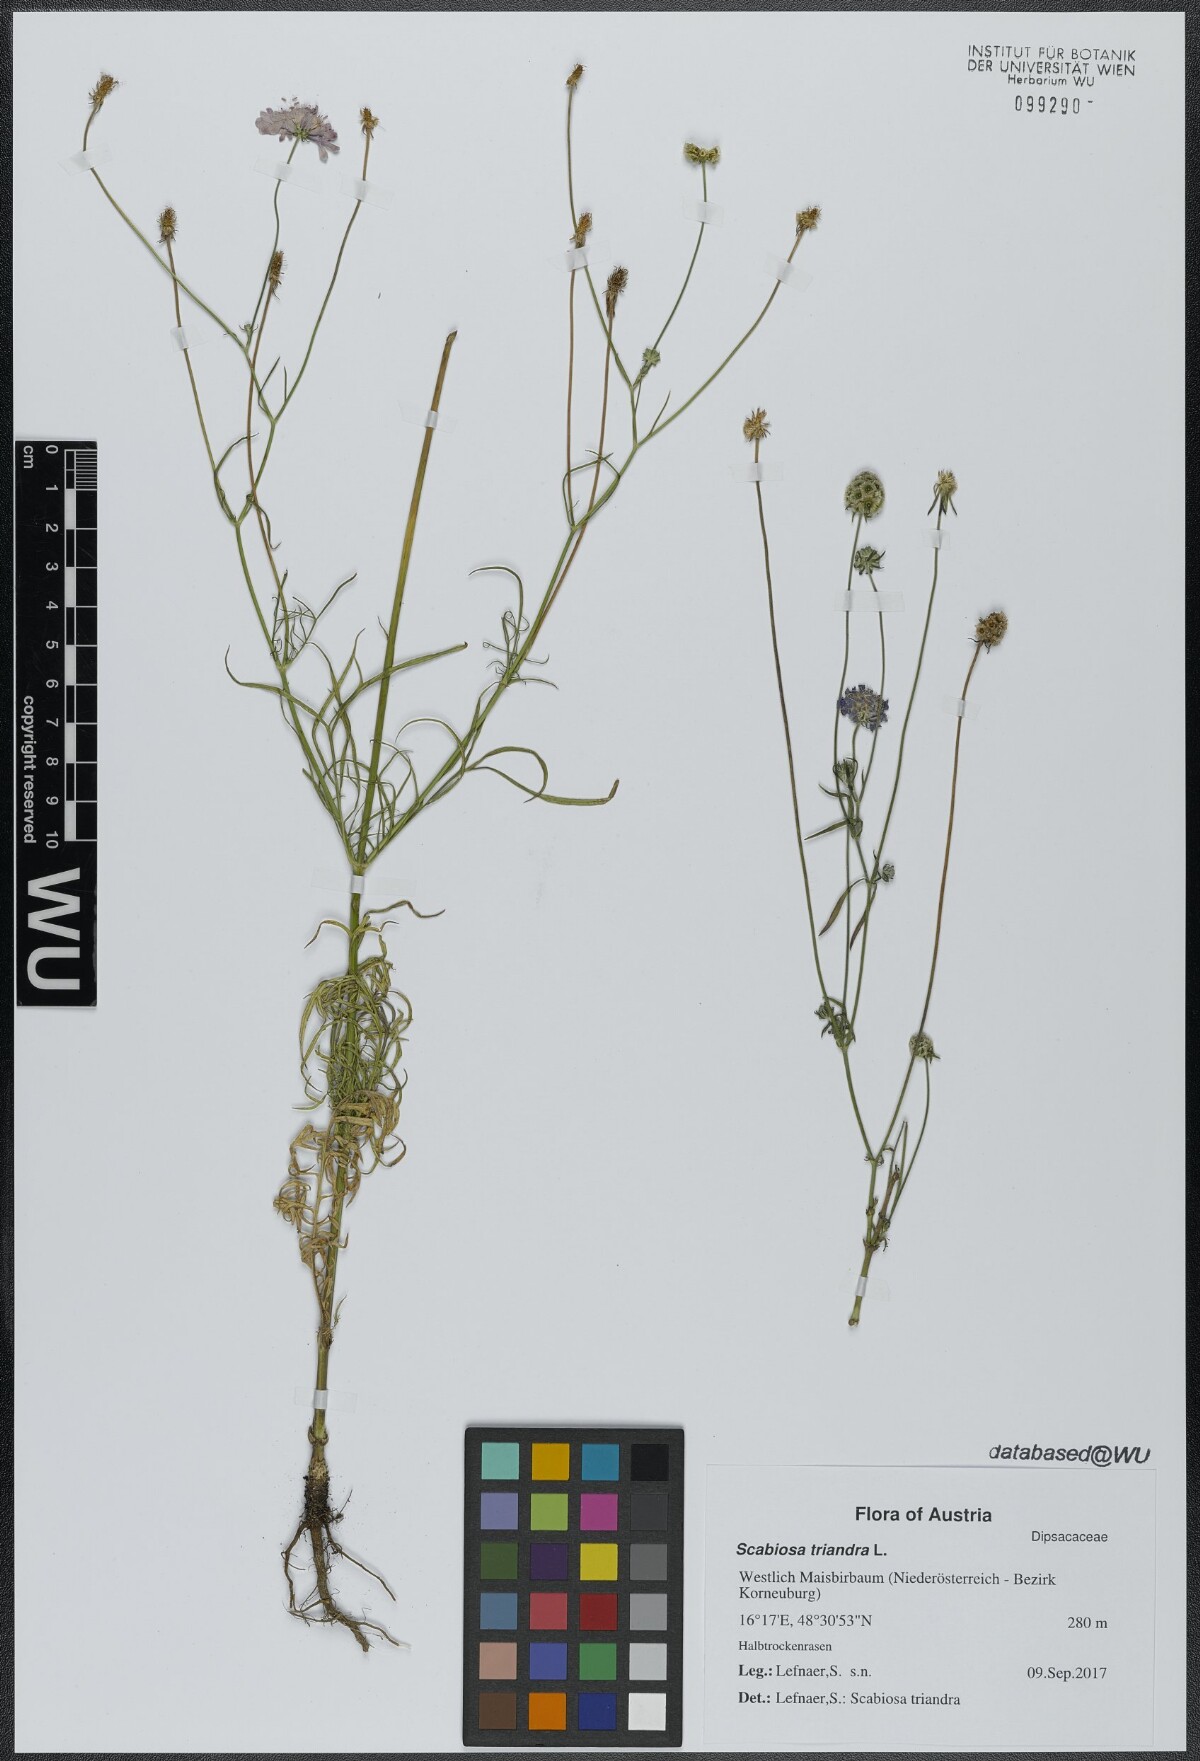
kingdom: Plantae
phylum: Tracheophyta
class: Magnoliopsida
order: Dipsacales
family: Caprifoliaceae
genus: Scabiosa
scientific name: Scabiosa triandra
